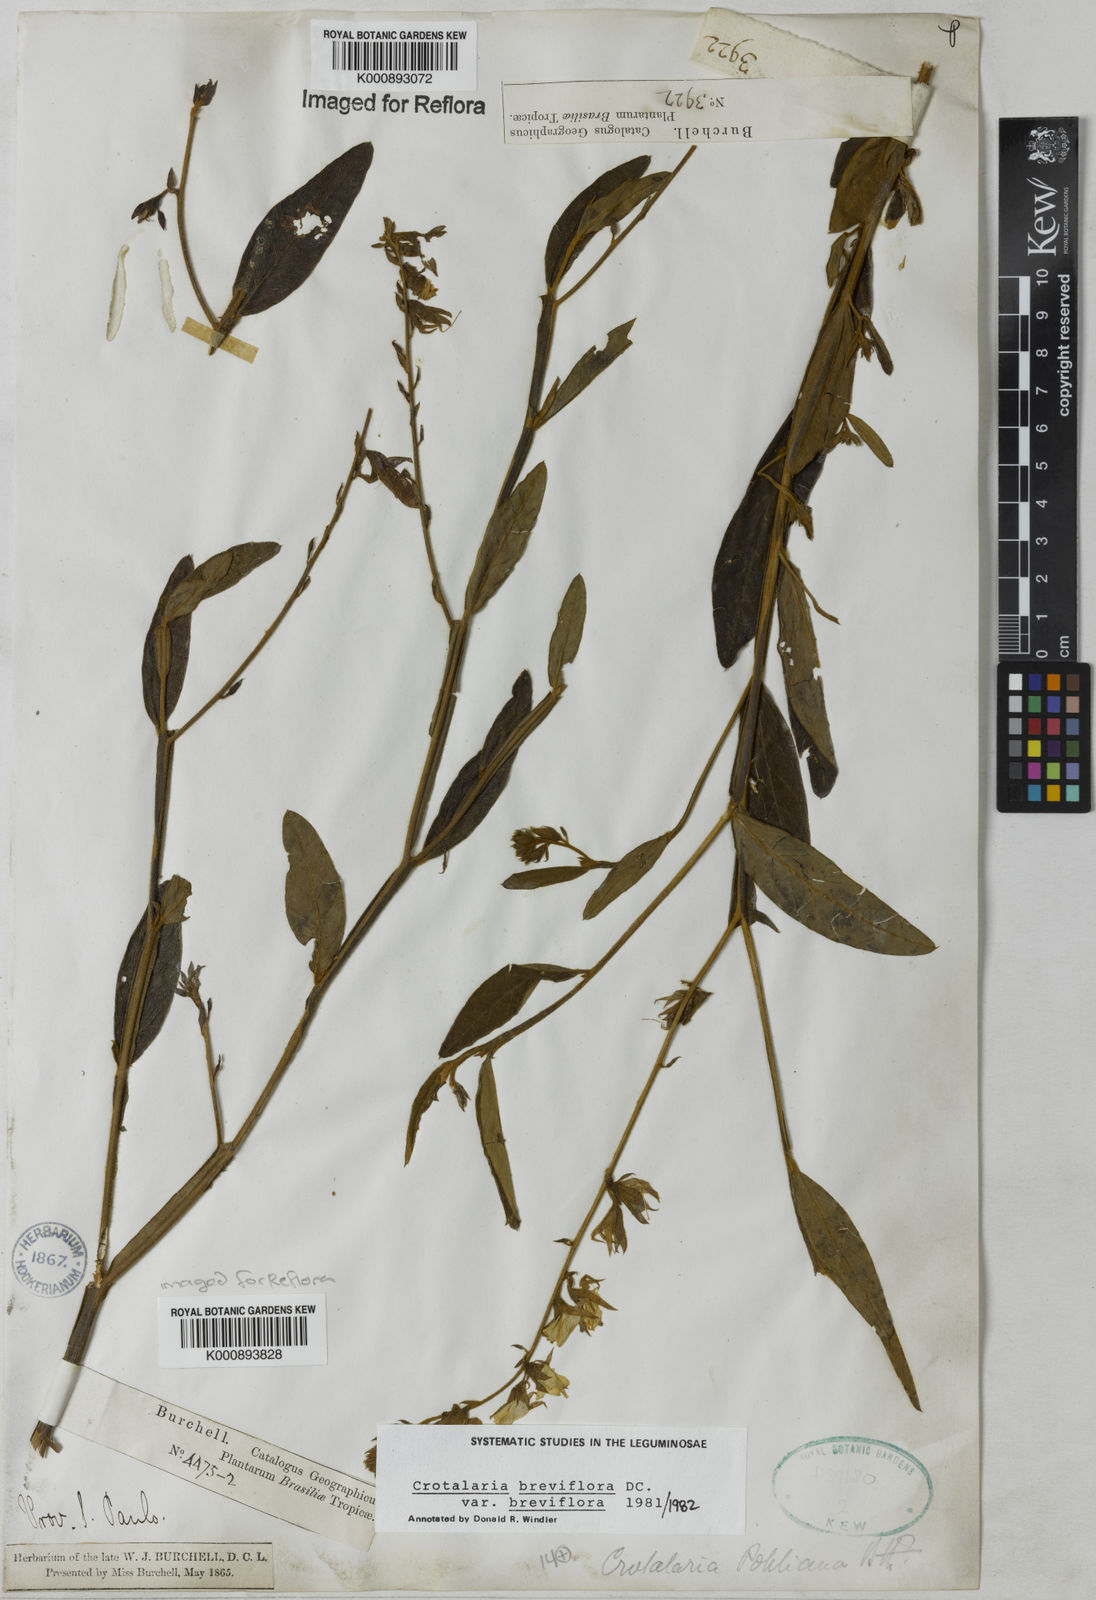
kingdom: Plantae
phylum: Tracheophyta
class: Magnoliopsida
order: Fabales
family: Fabaceae
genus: Crotalaria
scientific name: Crotalaria breviflora
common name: Short-flower crotalaria
